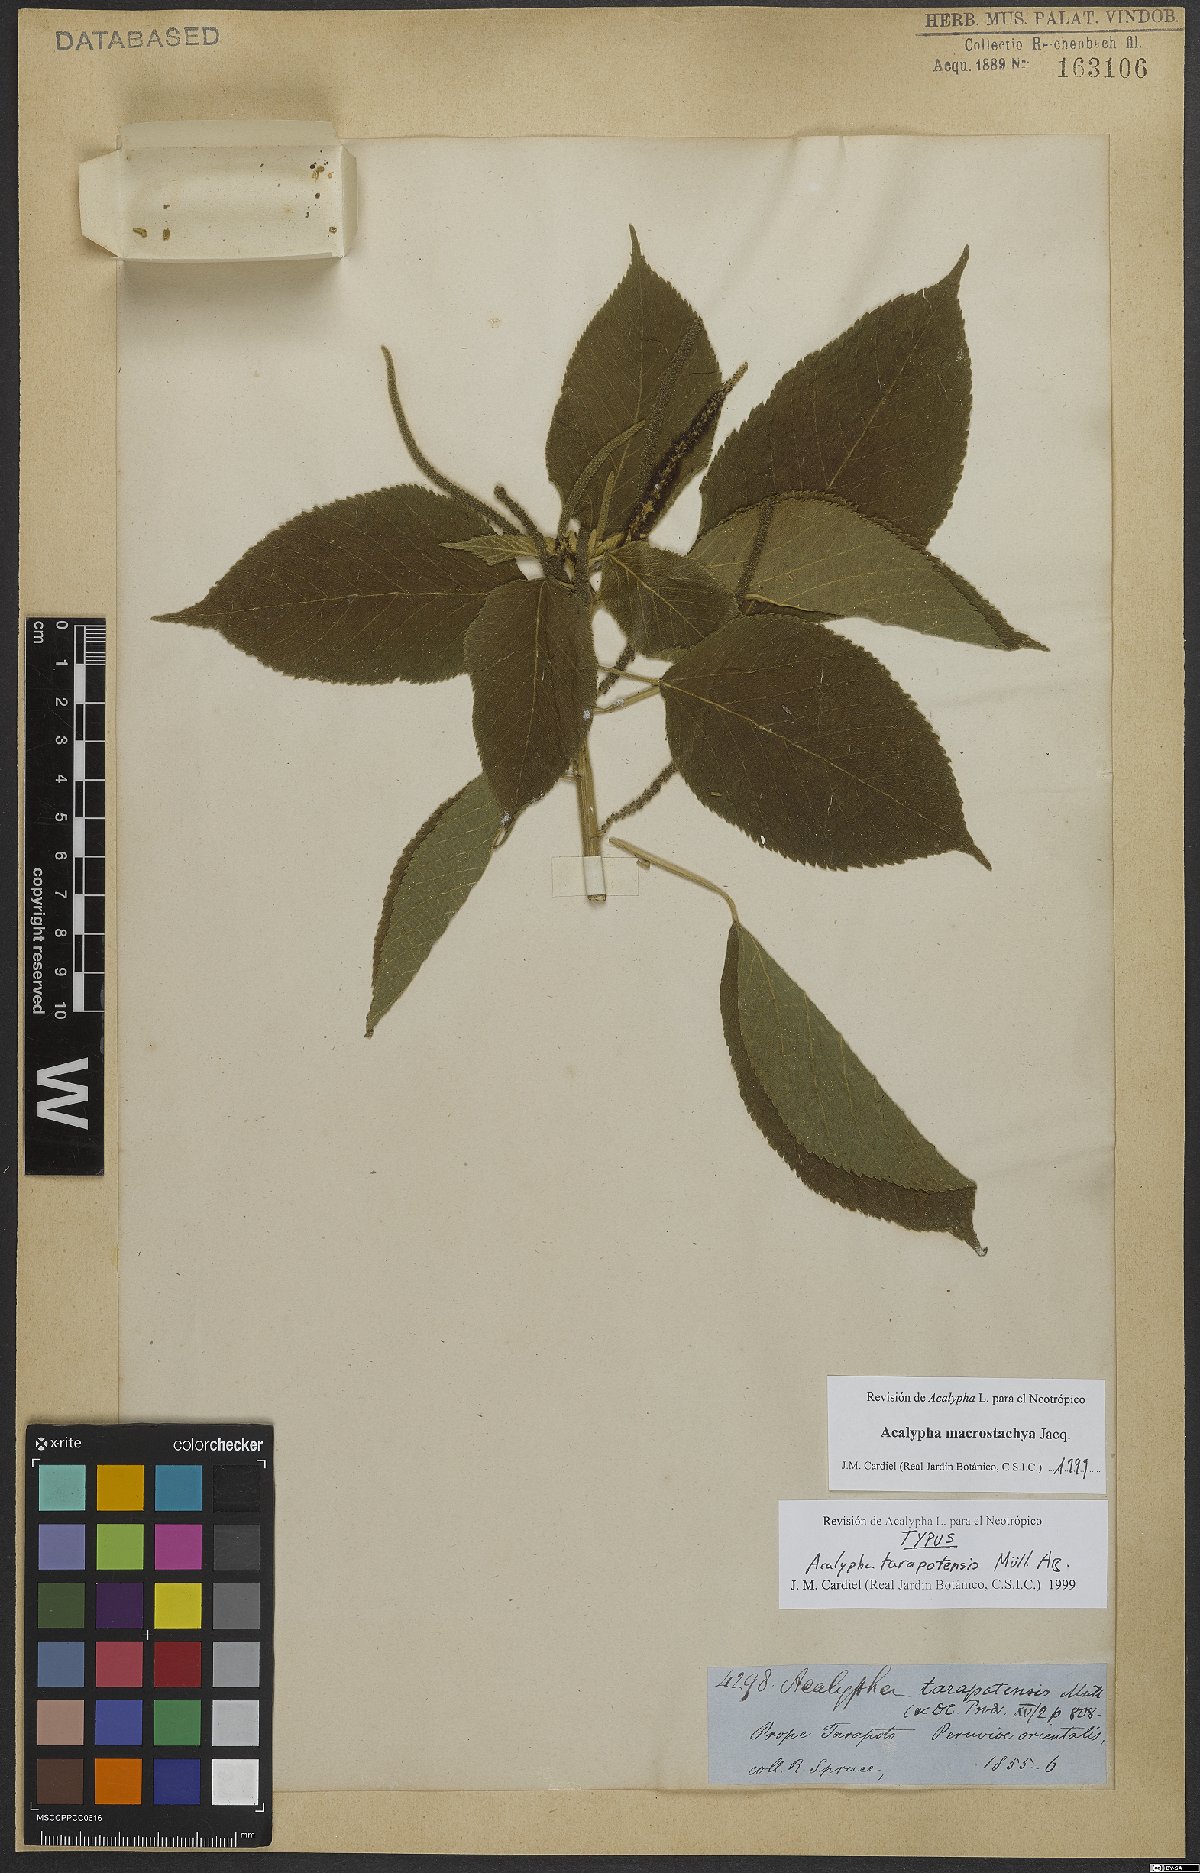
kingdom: Plantae
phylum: Tracheophyta
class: Magnoliopsida
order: Malpighiales
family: Euphorbiaceae
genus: Acalypha
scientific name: Acalypha macrostachya
